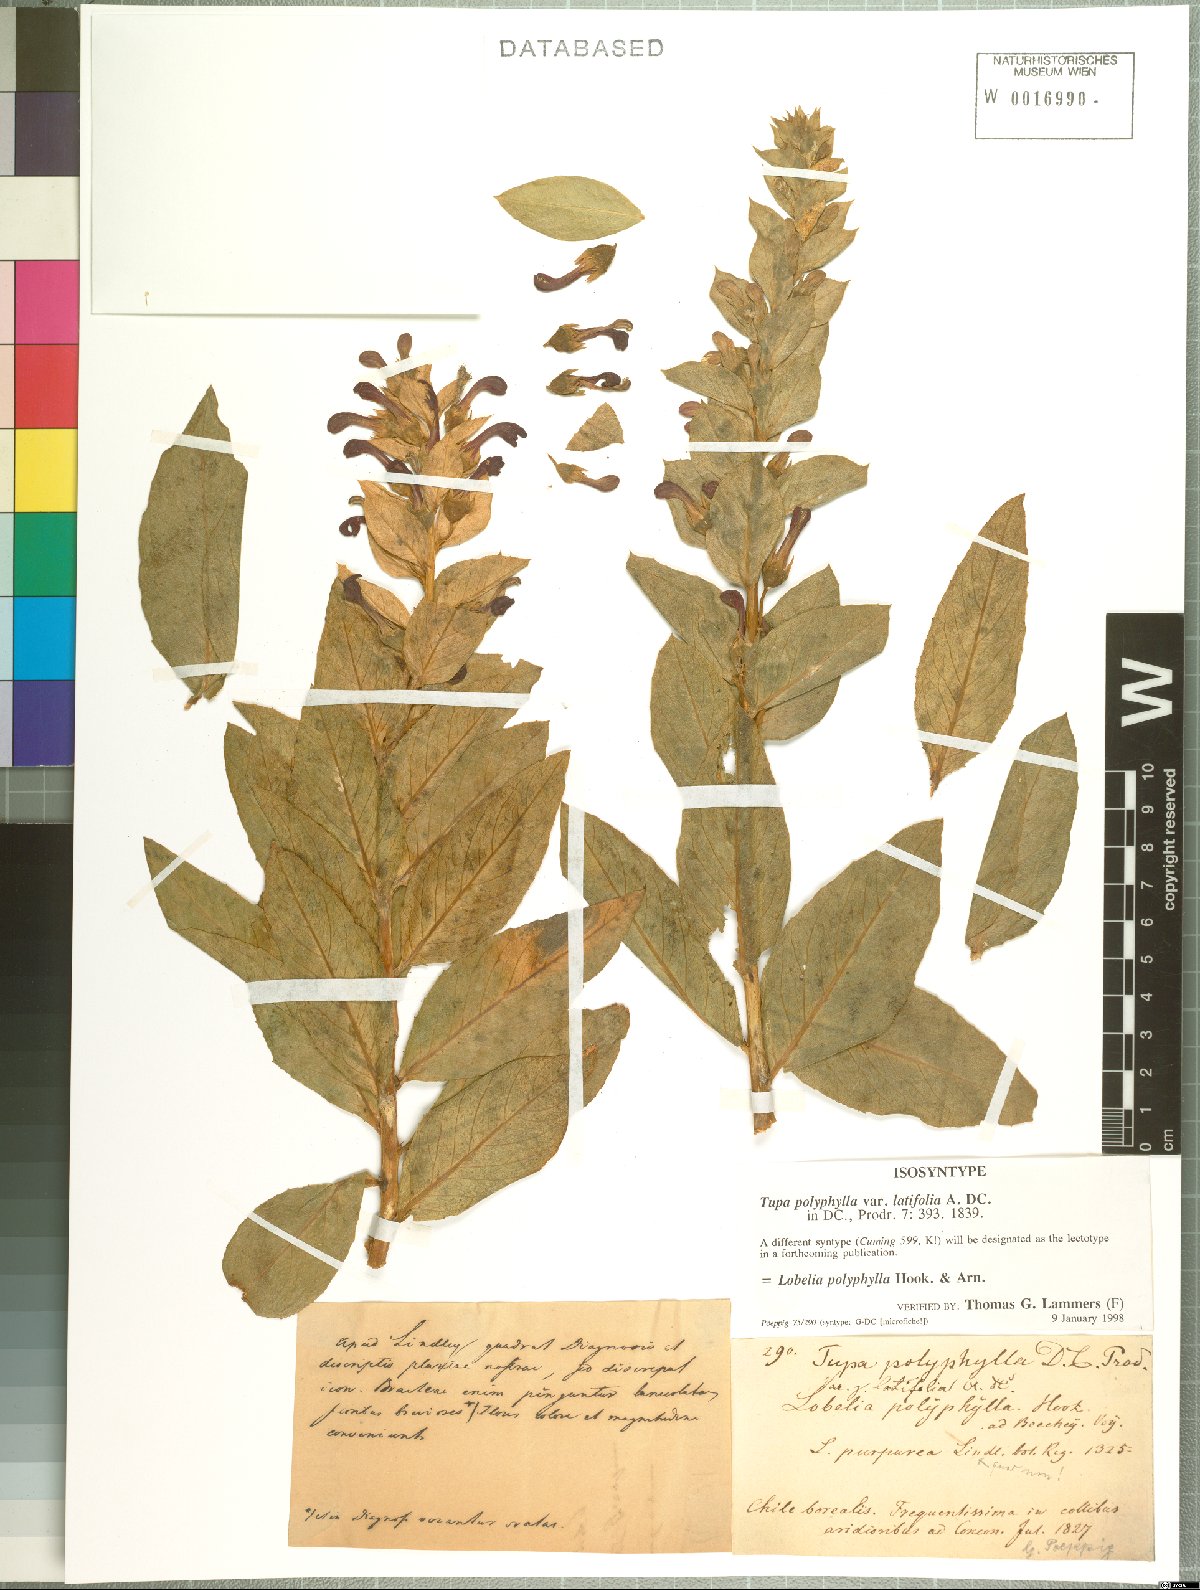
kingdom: Plantae
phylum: Tracheophyta
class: Magnoliopsida
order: Asterales
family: Campanulaceae
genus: Lobelia
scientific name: Lobelia polyphylla
